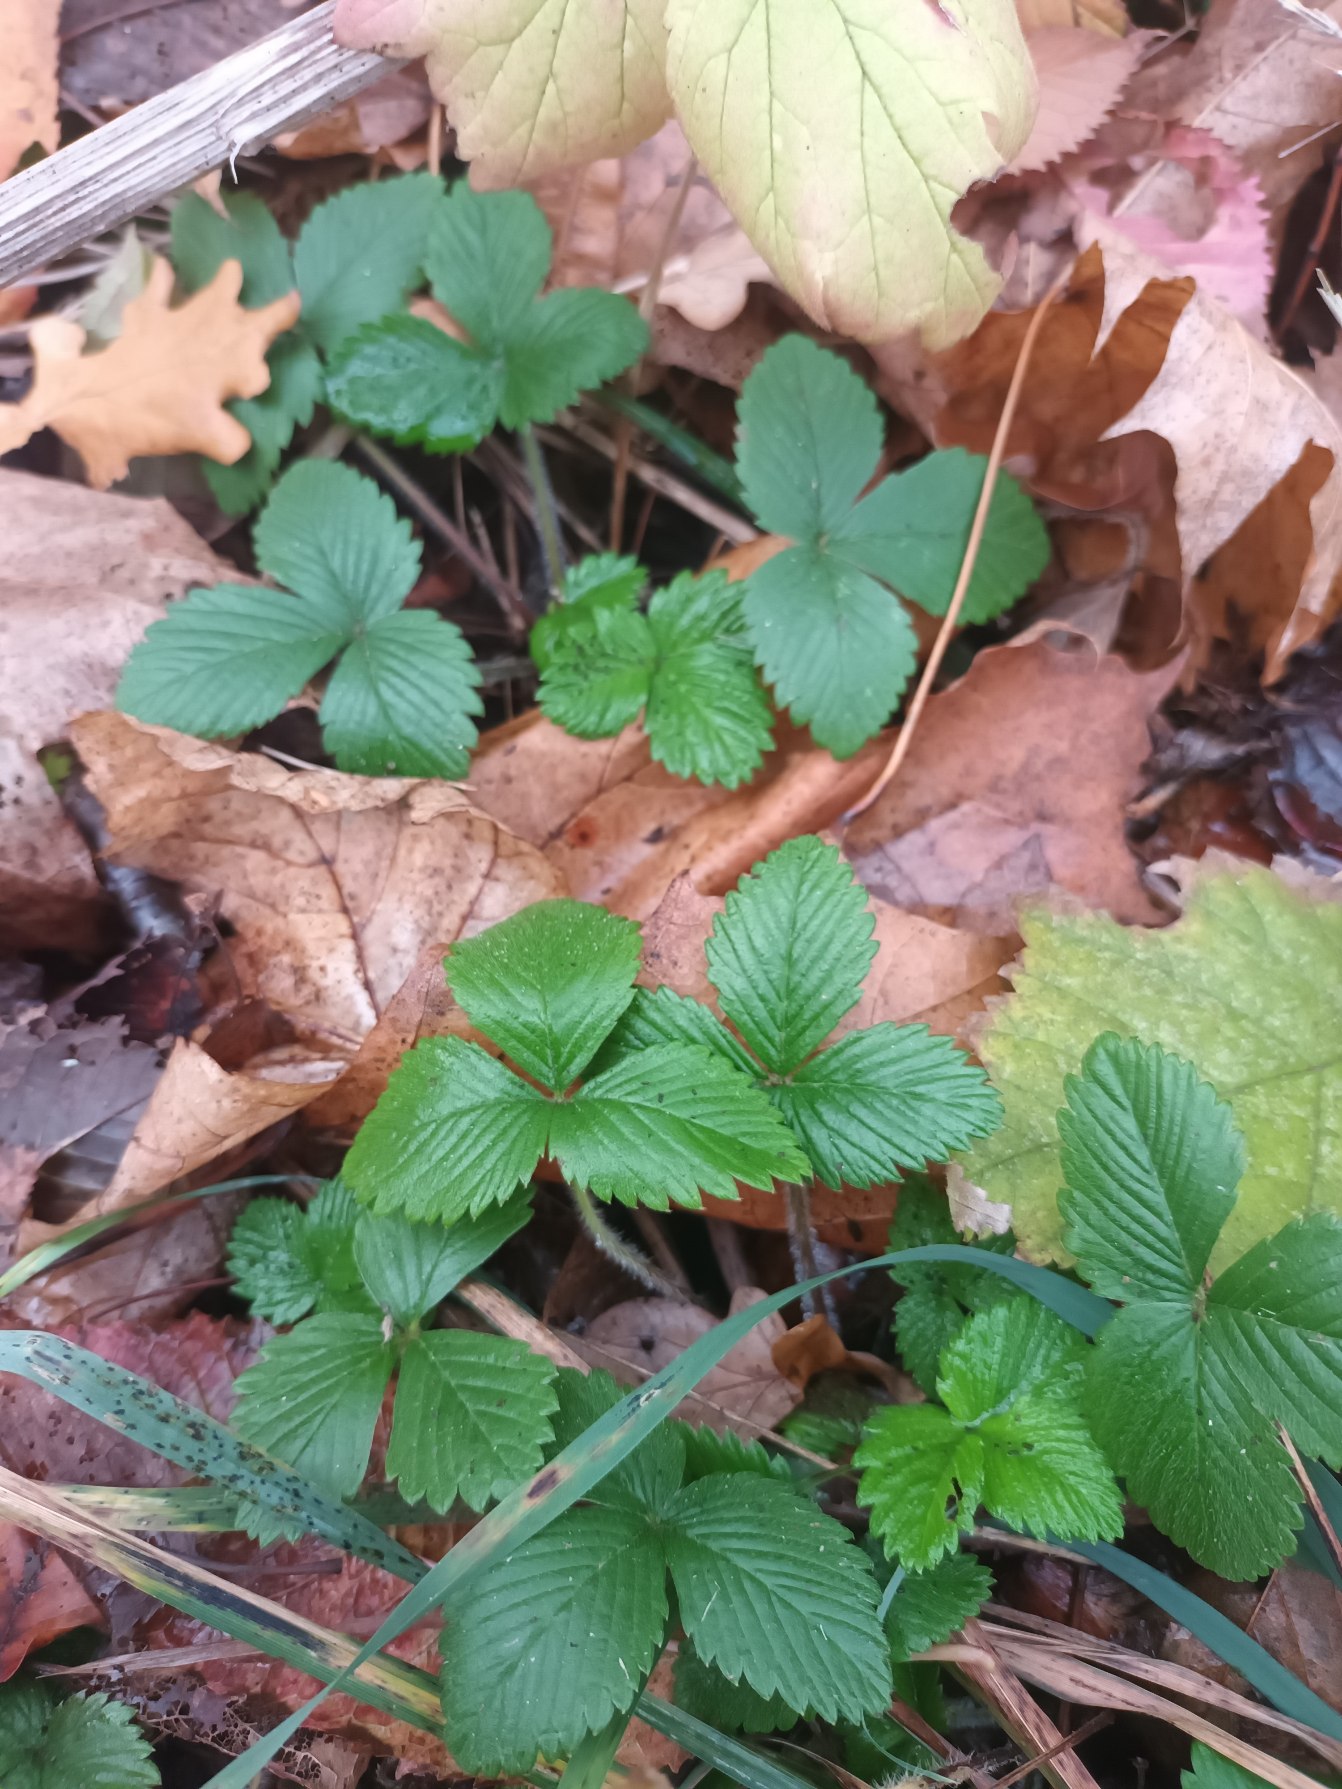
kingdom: Plantae
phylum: Tracheophyta
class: Magnoliopsida
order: Rosales
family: Rosaceae
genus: Fragaria
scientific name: Fragaria vesca
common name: Skov-jordbær
